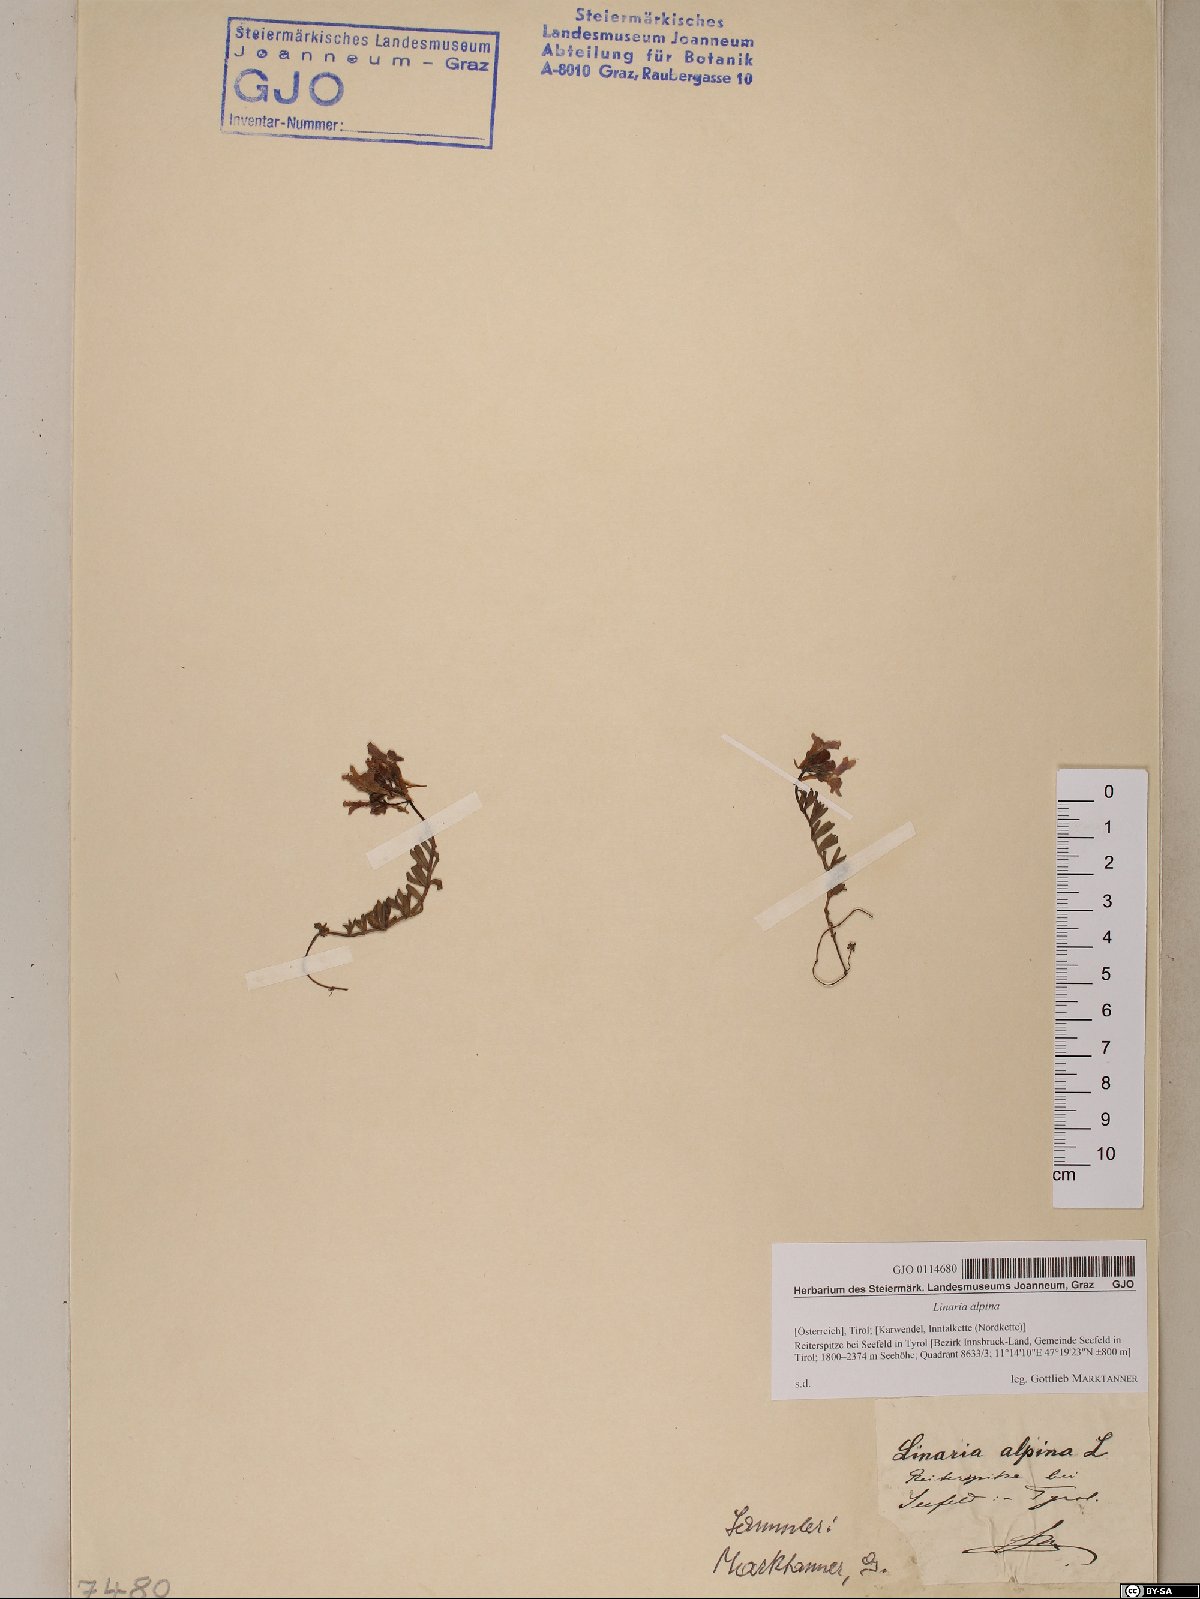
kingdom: Plantae
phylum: Tracheophyta
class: Magnoliopsida
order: Lamiales
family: Plantaginaceae
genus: Linaria
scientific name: Linaria alpina
